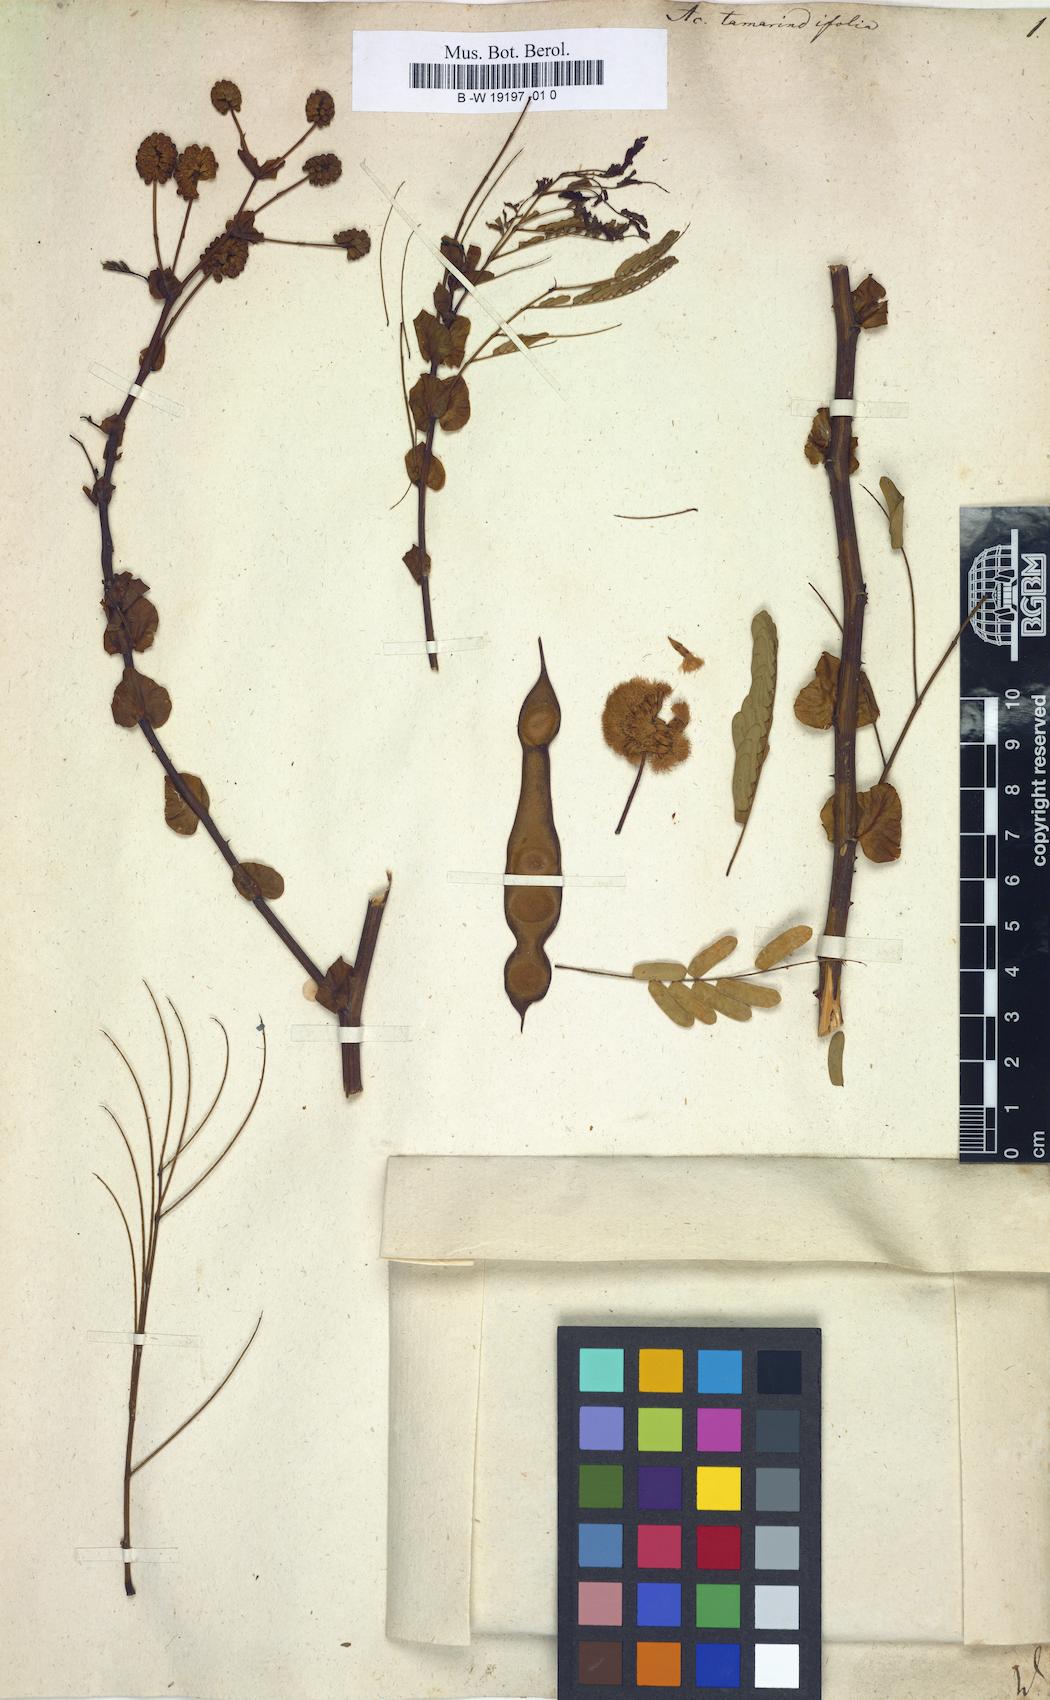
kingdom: Plantae
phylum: Tracheophyta
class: Magnoliopsida
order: Fabales
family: Fabaceae
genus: Senegalia
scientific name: Senegalia tamarindifolia
